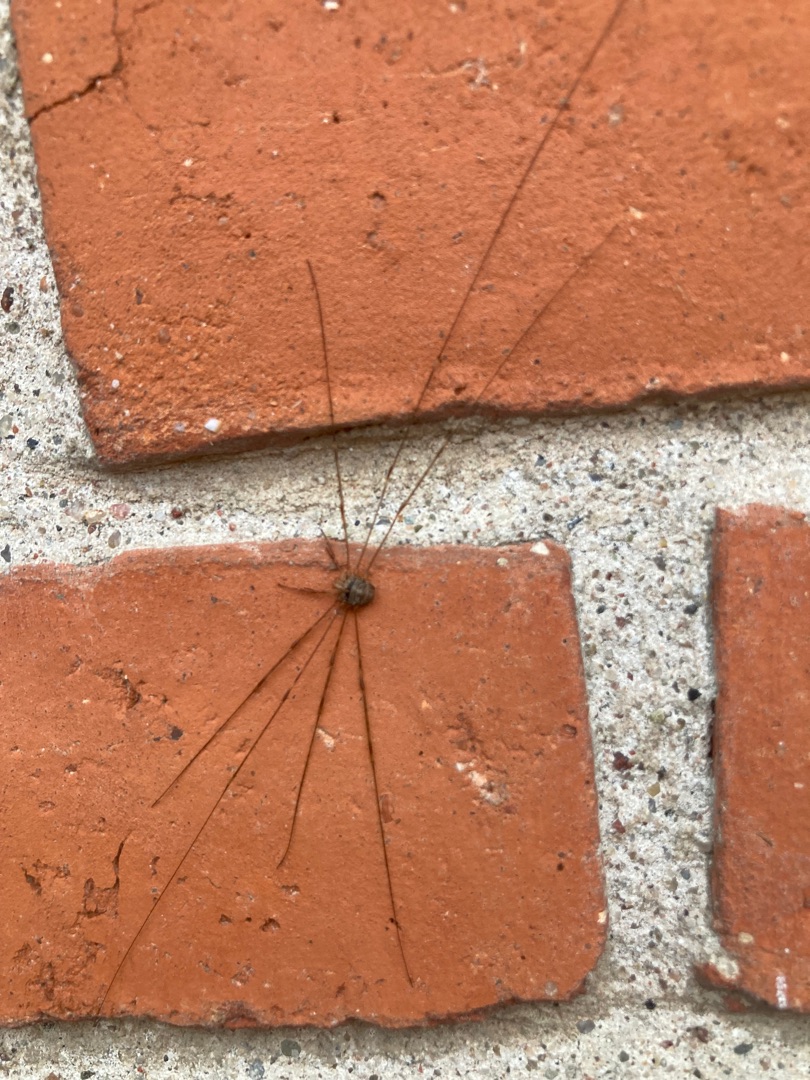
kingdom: Animalia
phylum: Arthropoda
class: Arachnida
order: Opiliones
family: Phalangiidae
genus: Dicranopalpus
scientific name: Dicranopalpus ramosus
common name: Gaffelmejer
